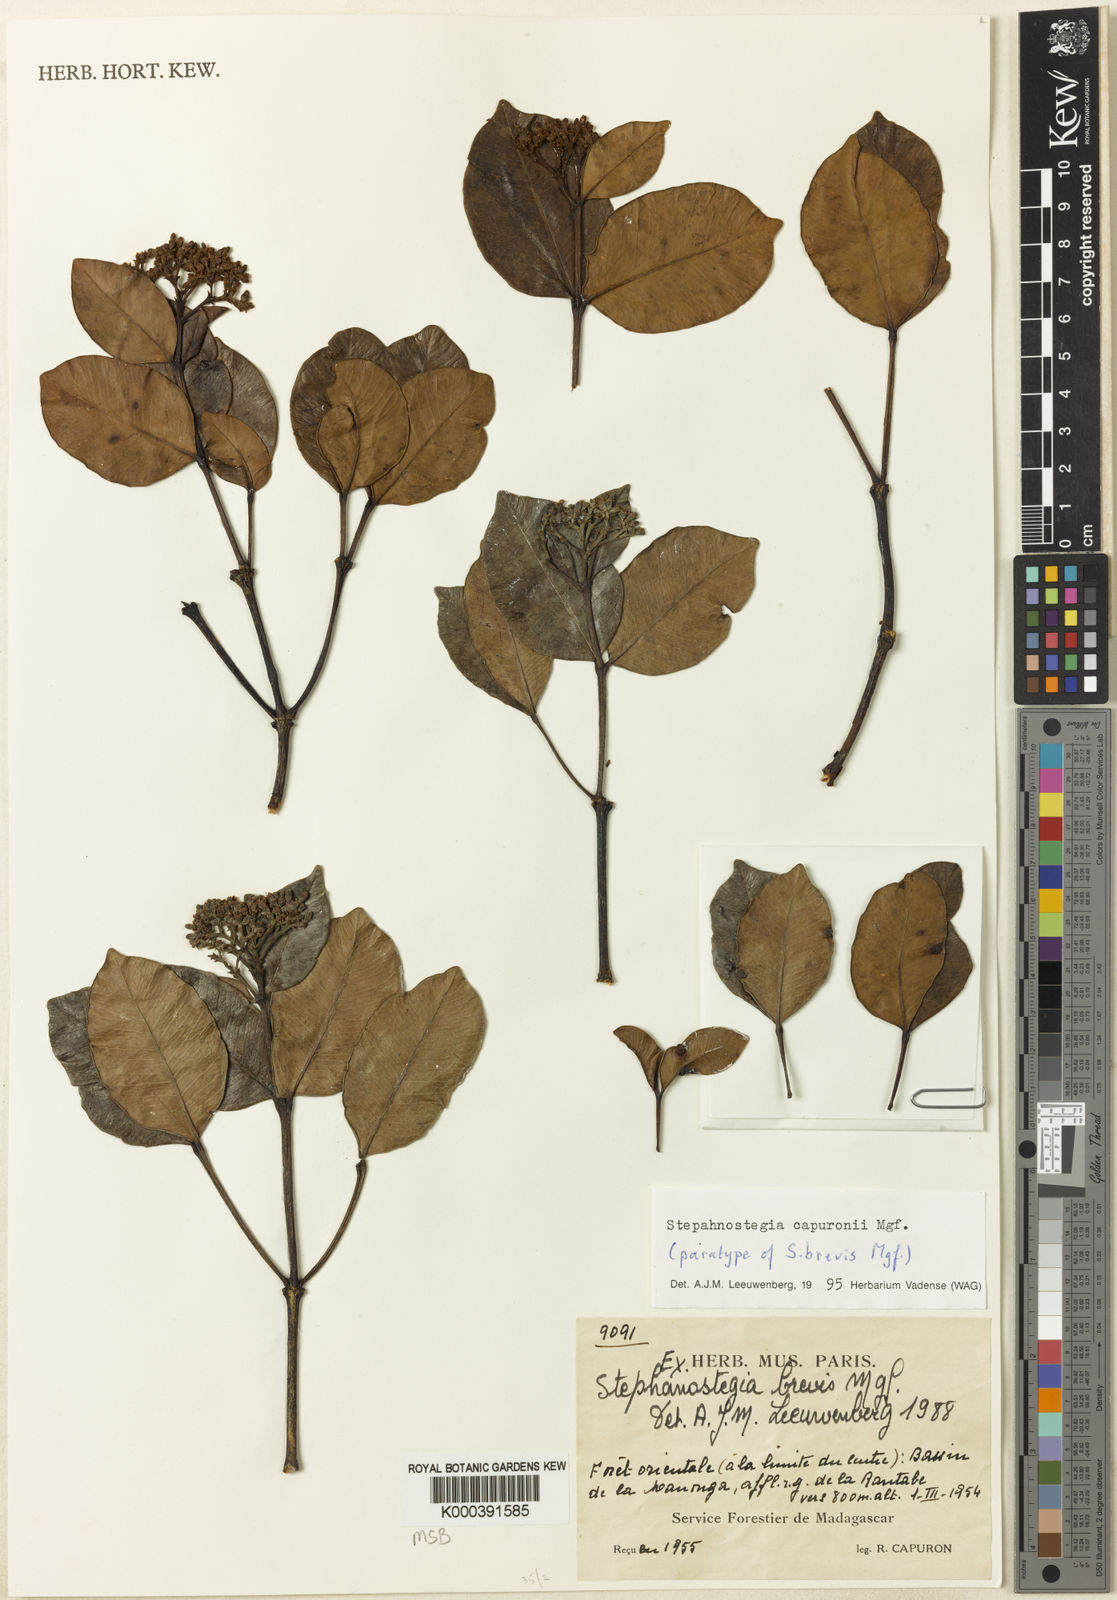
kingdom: Plantae
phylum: Tracheophyta
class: Magnoliopsida
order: Gentianales
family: Apocynaceae
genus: Stephanostegia
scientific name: Stephanostegia capuronii
